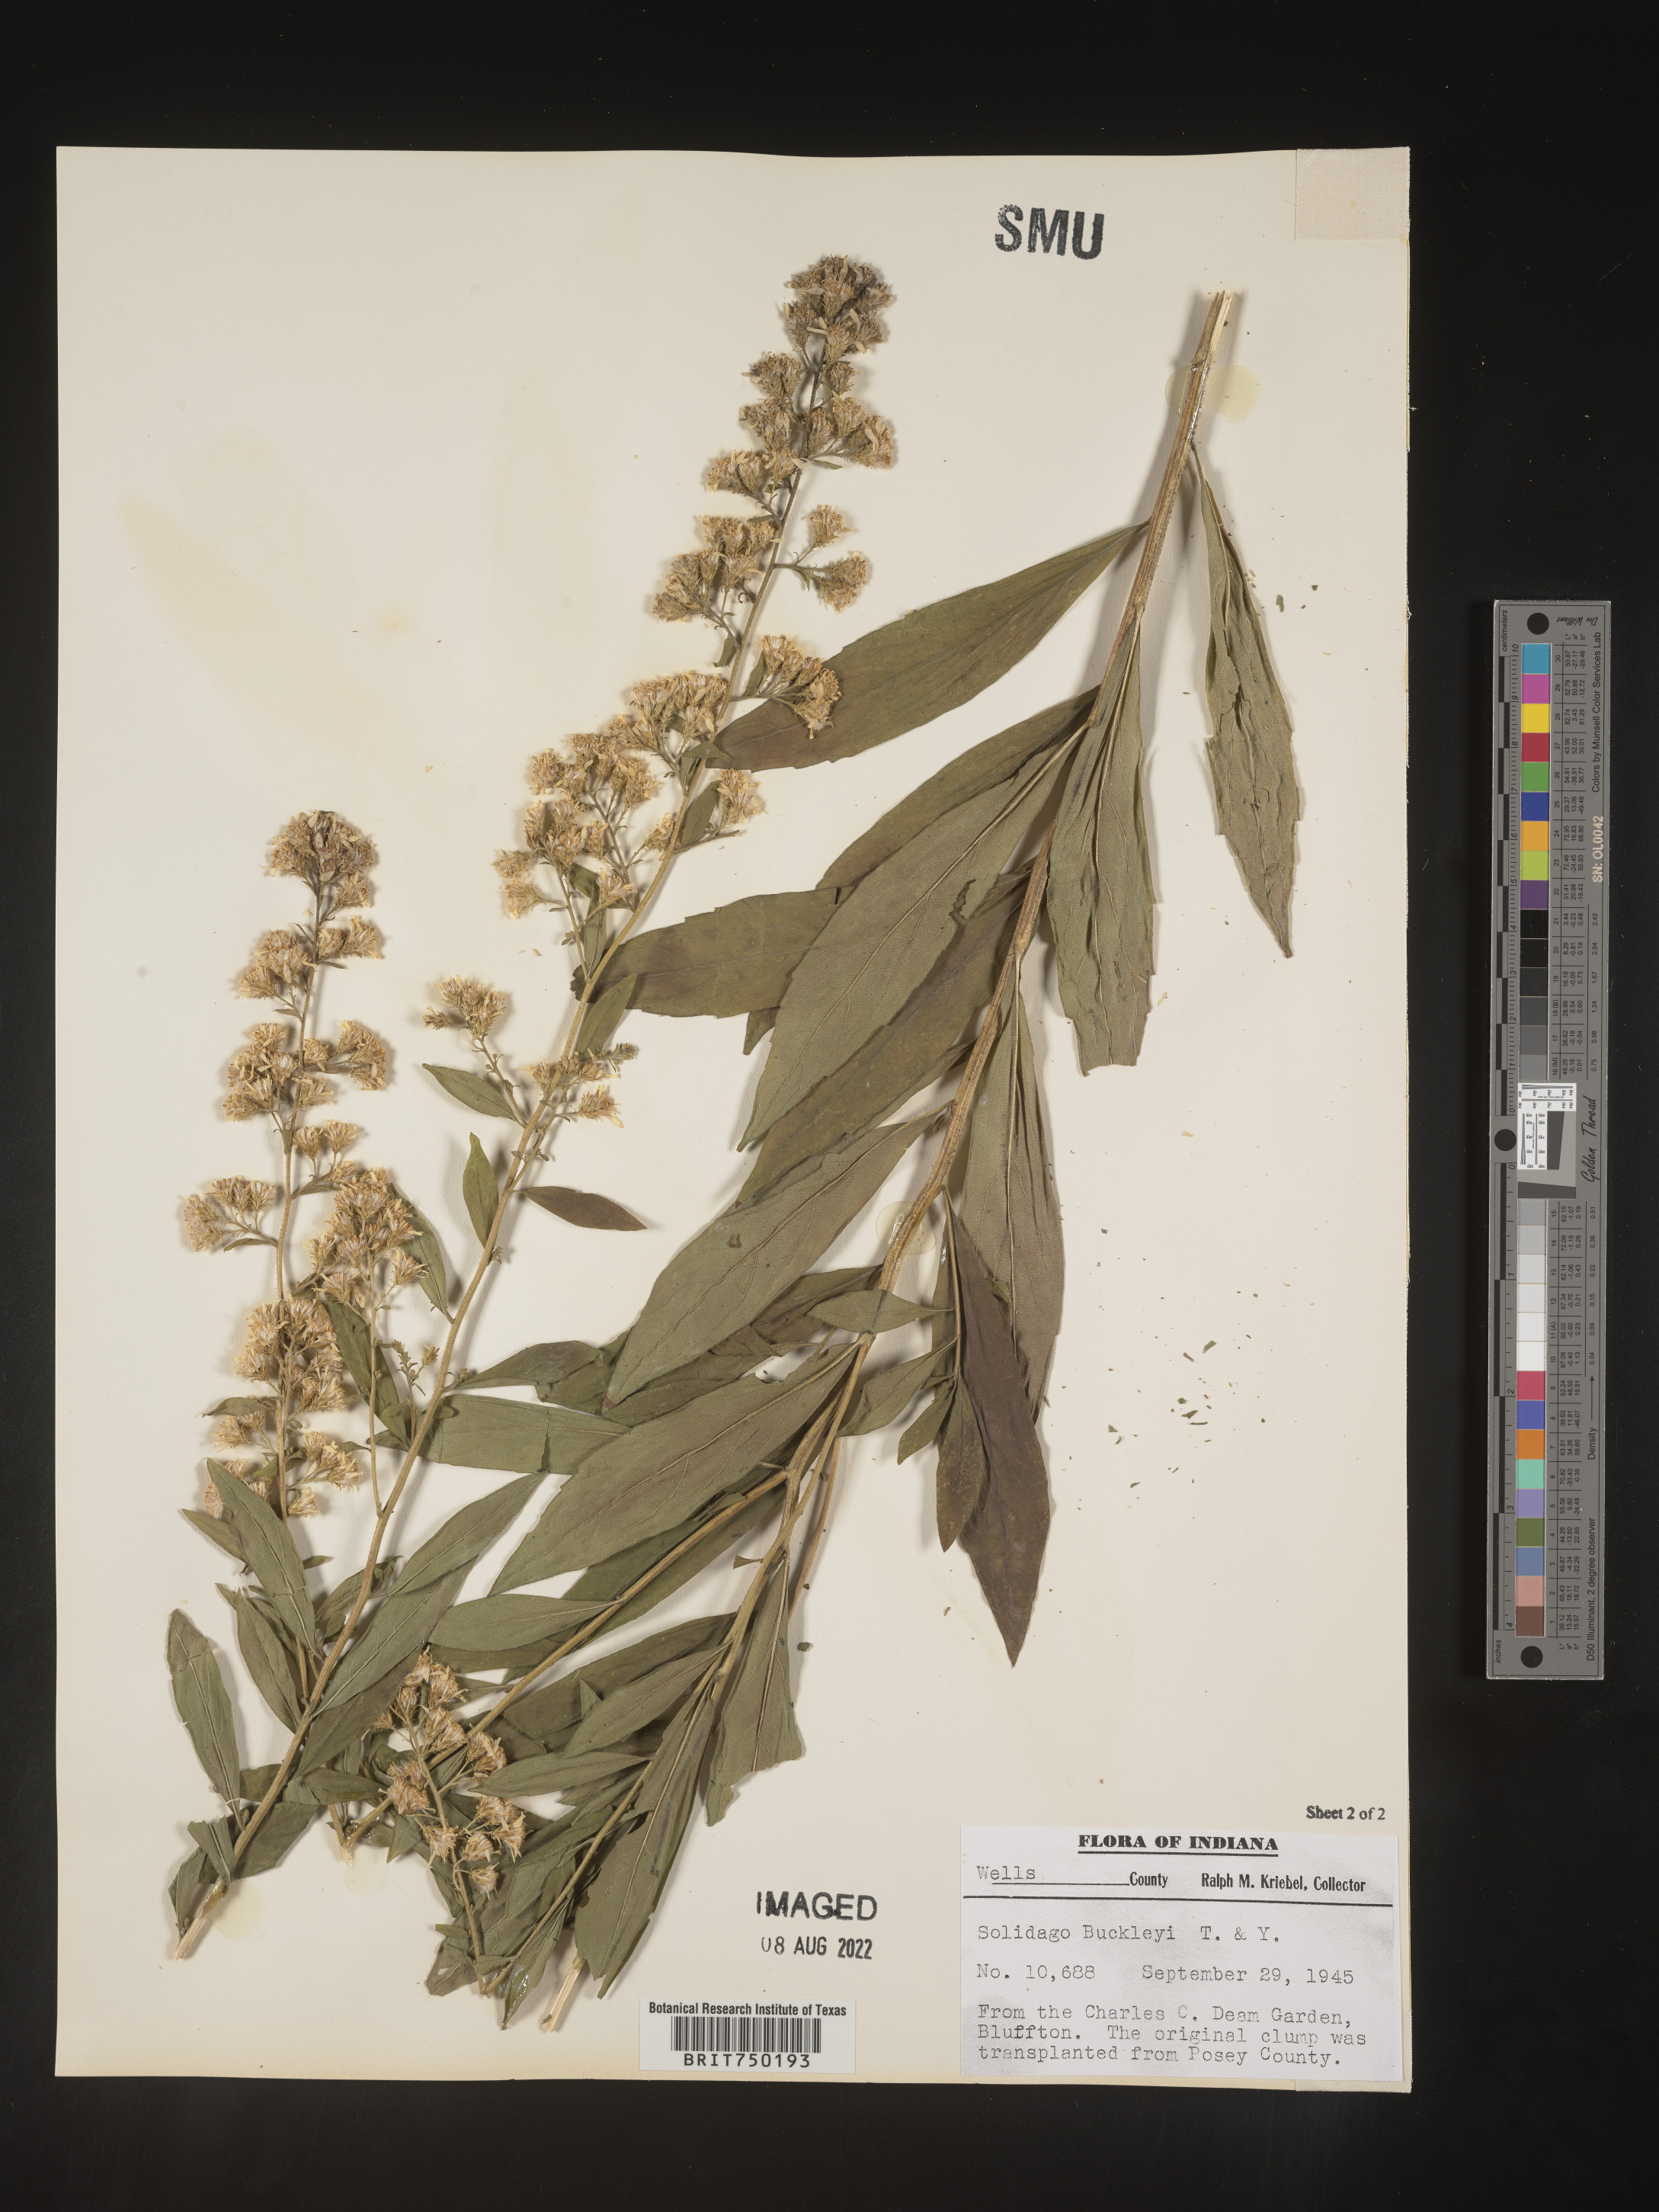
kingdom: Plantae
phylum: Tracheophyta
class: Magnoliopsida
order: Asterales
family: Asteraceae
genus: Solidago
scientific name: Solidago
